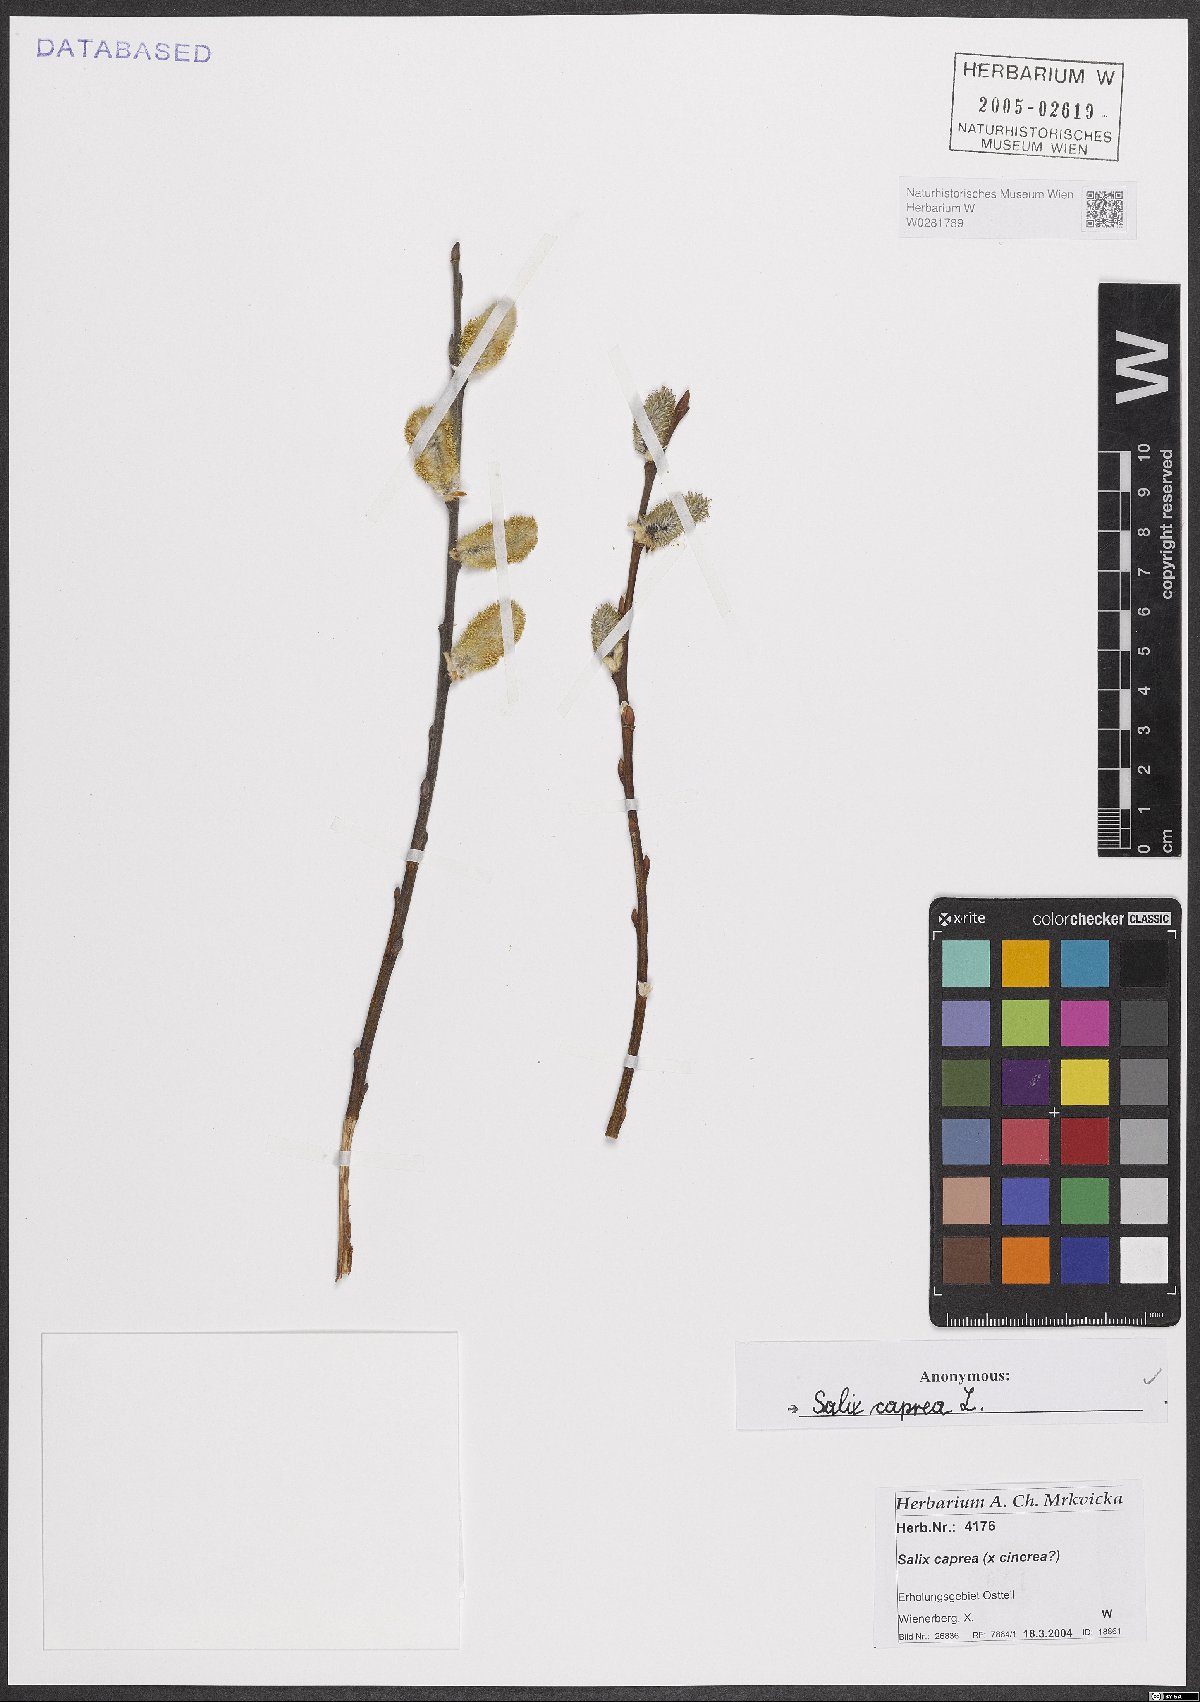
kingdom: Plantae
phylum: Tracheophyta
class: Magnoliopsida
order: Malpighiales
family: Salicaceae
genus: Salix
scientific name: Salix caprea
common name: Goat willow
